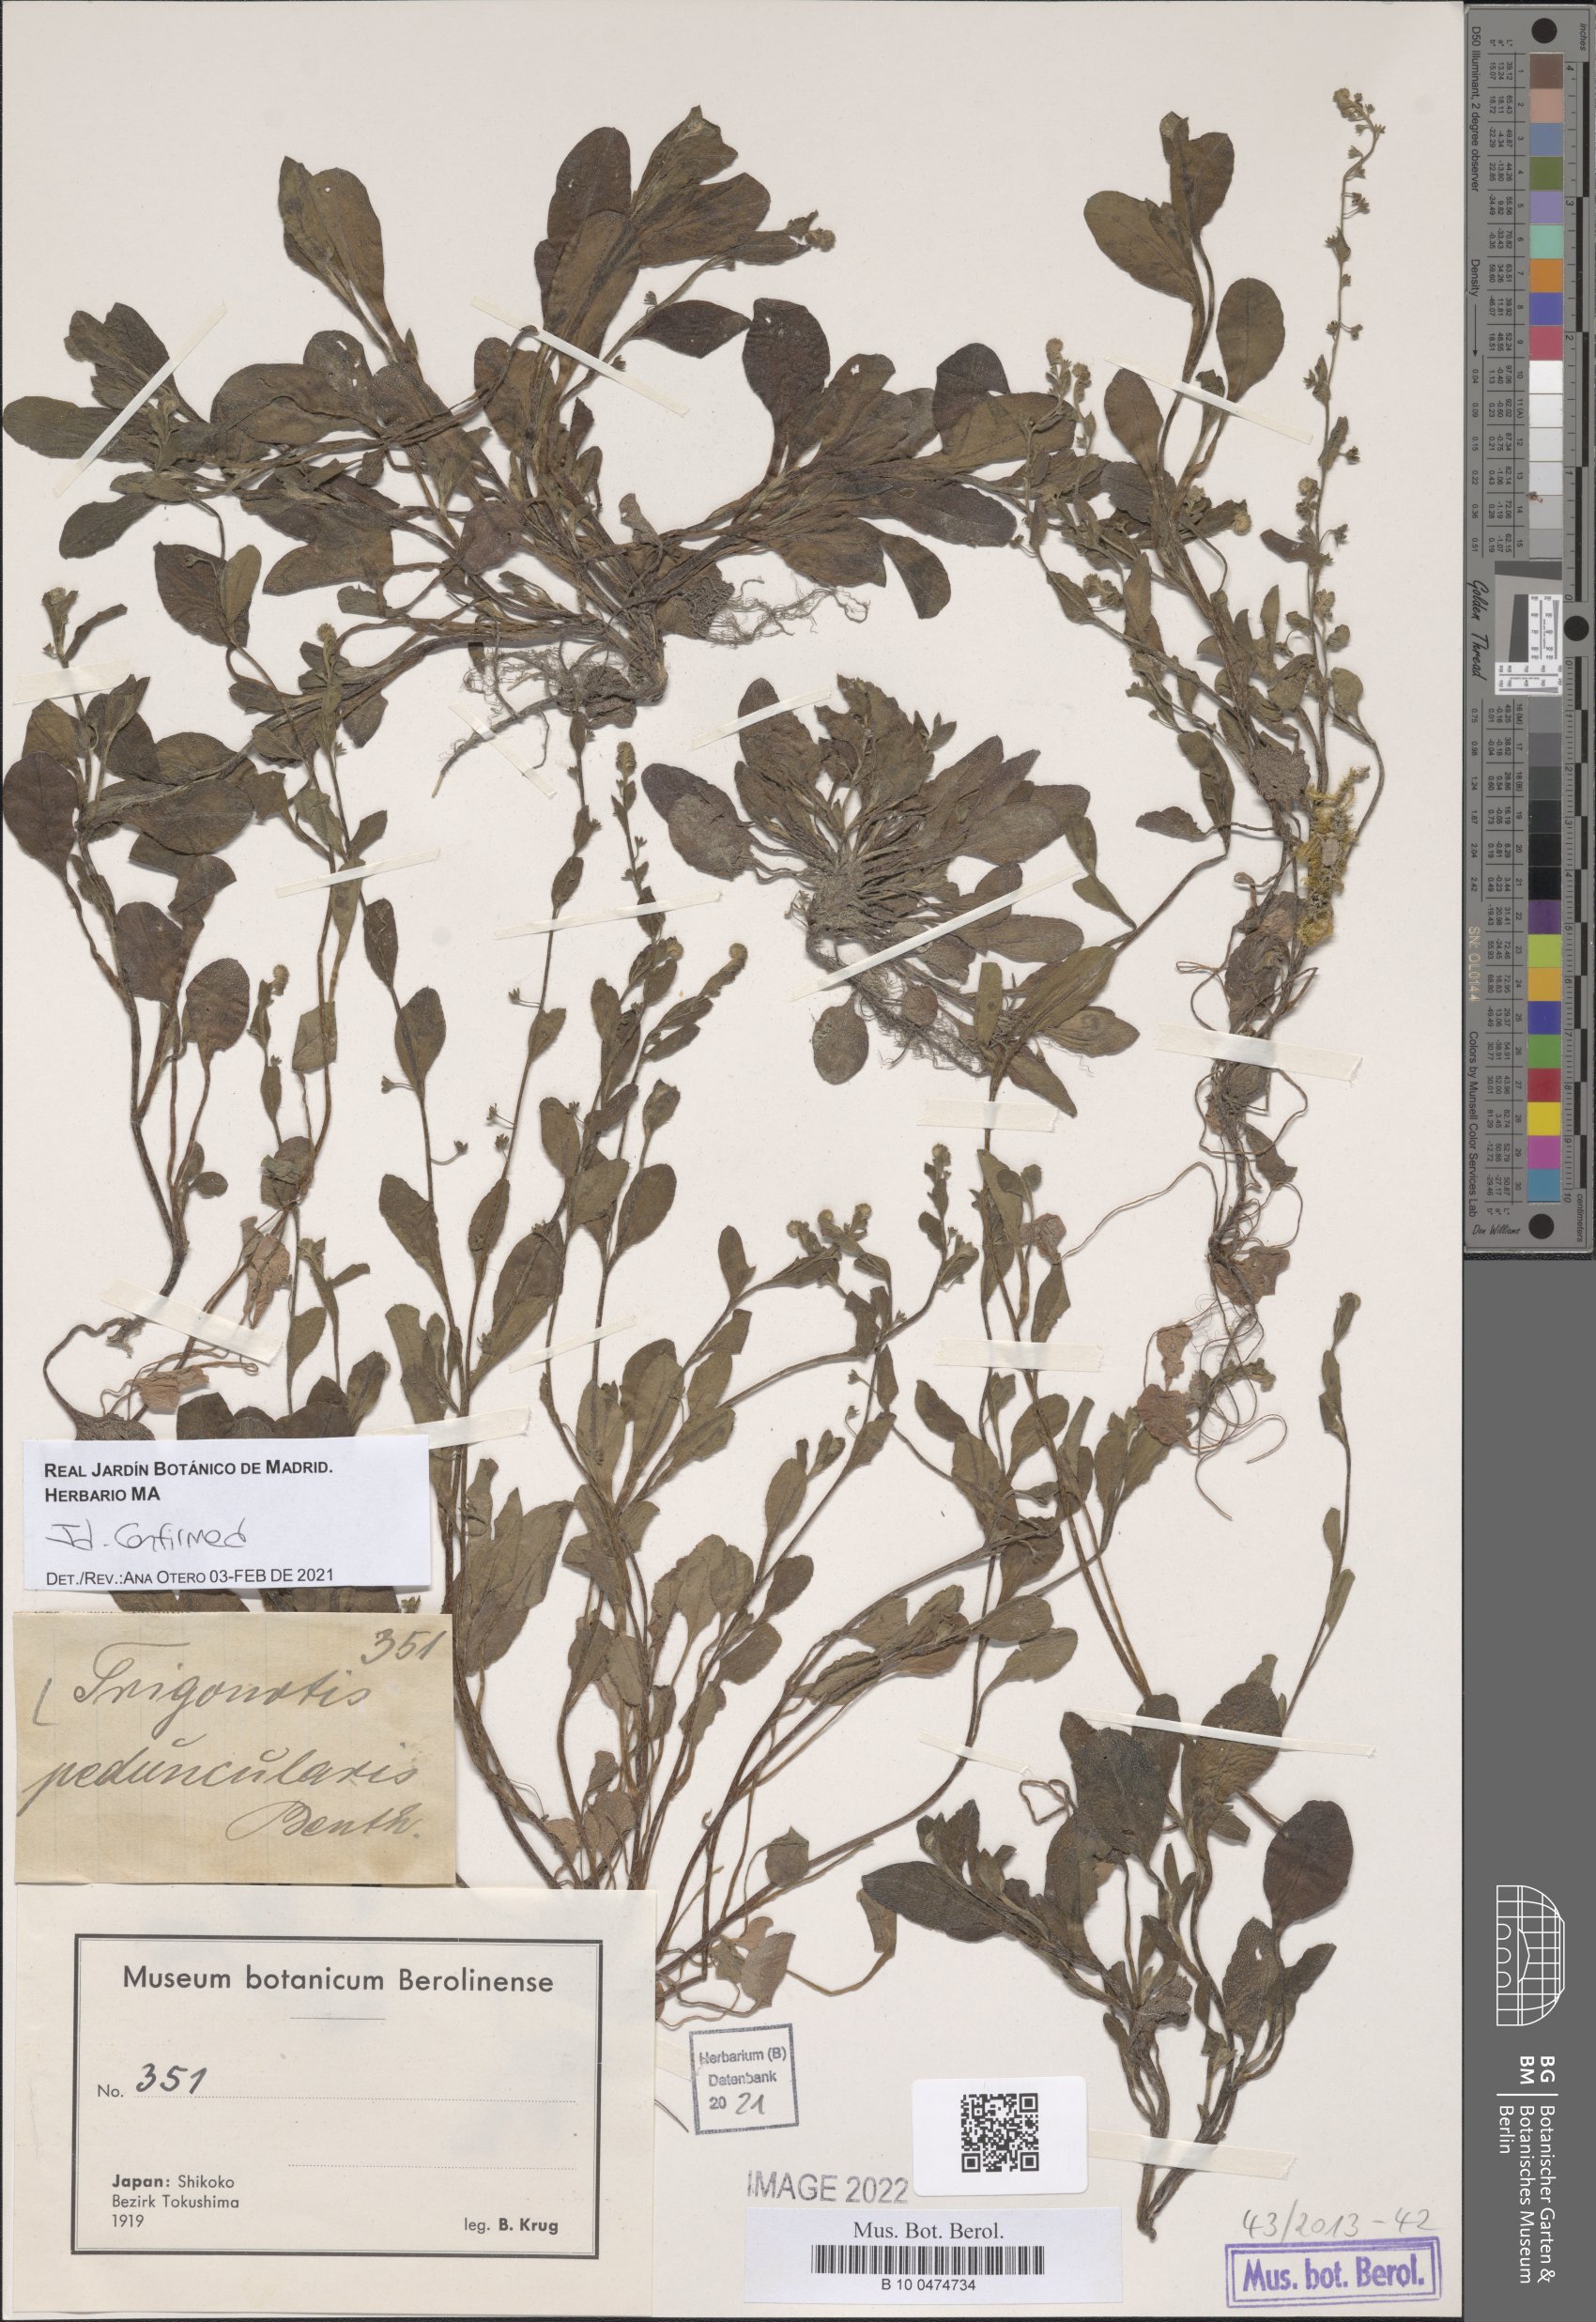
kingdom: Plantae
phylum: Tracheophyta
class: Magnoliopsida
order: Boraginales
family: Boraginaceae
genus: Trigonotis
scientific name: Trigonotis peduncularis
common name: Cucumber herb
